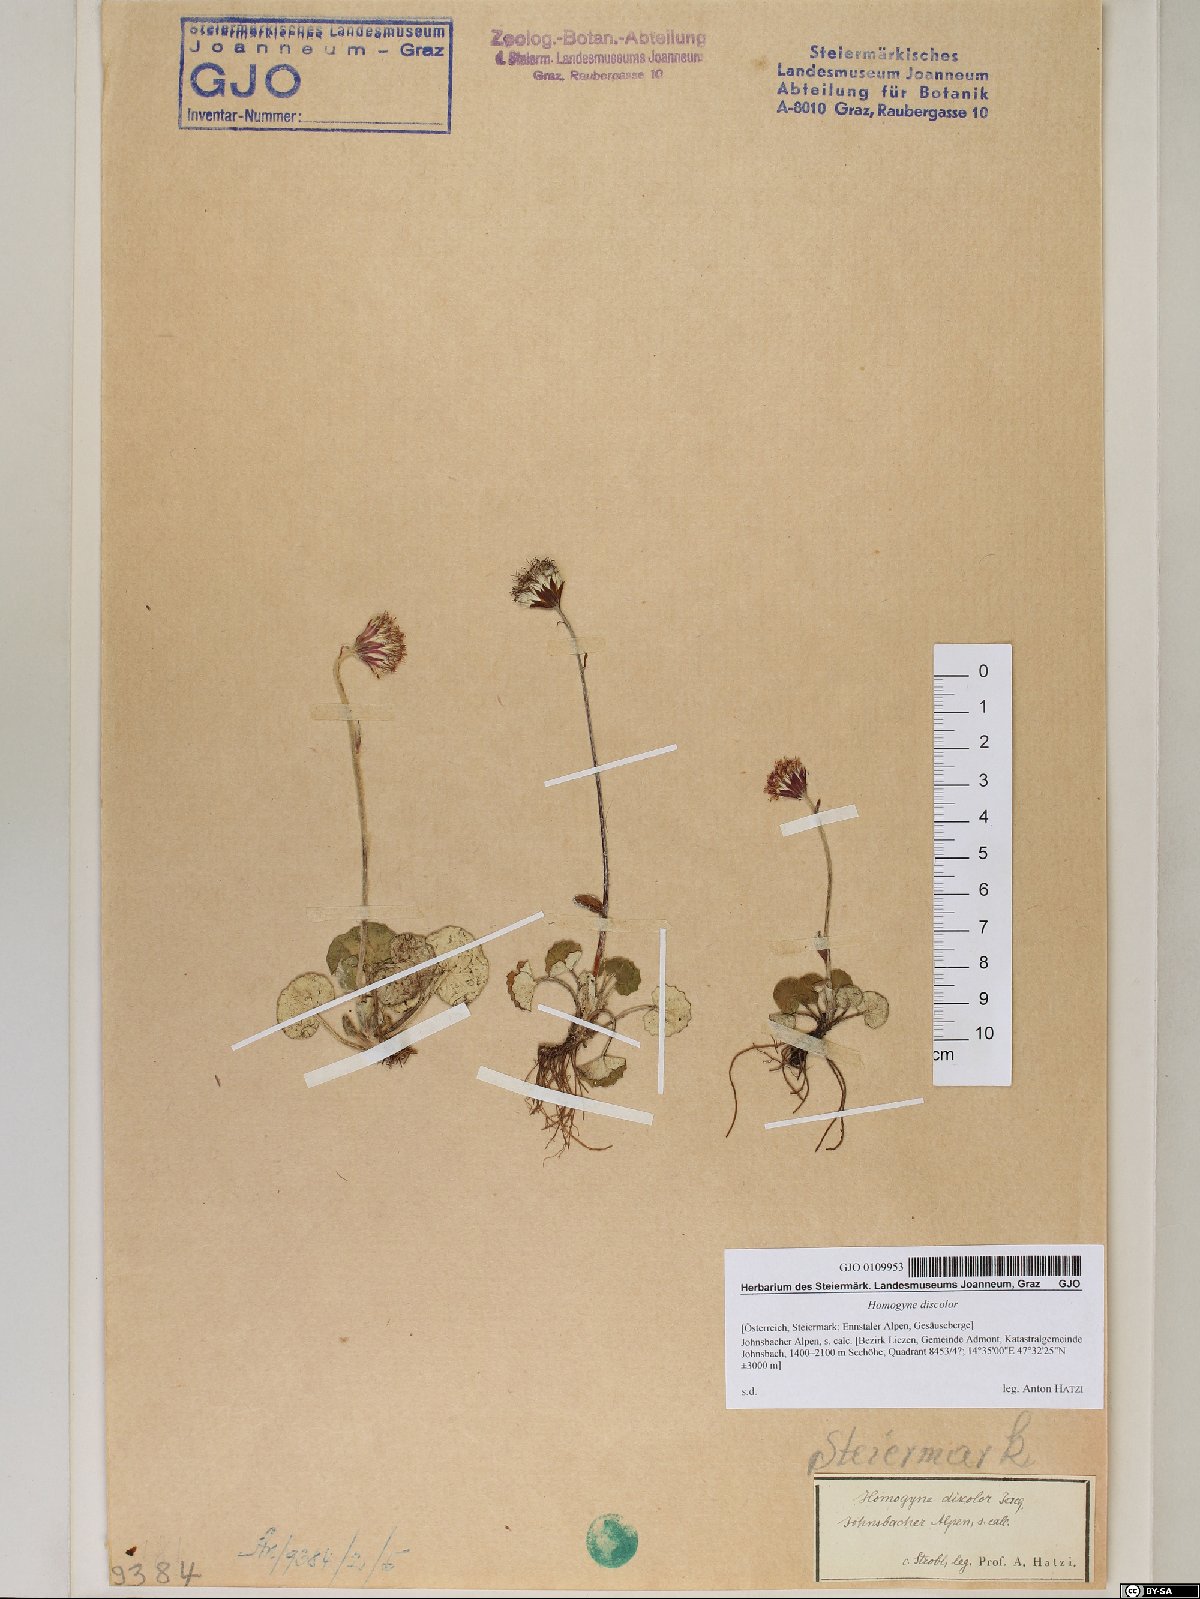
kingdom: Plantae
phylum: Tracheophyta
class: Magnoliopsida
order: Asterales
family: Asteraceae
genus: Homogyne
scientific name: Homogyne discolor
